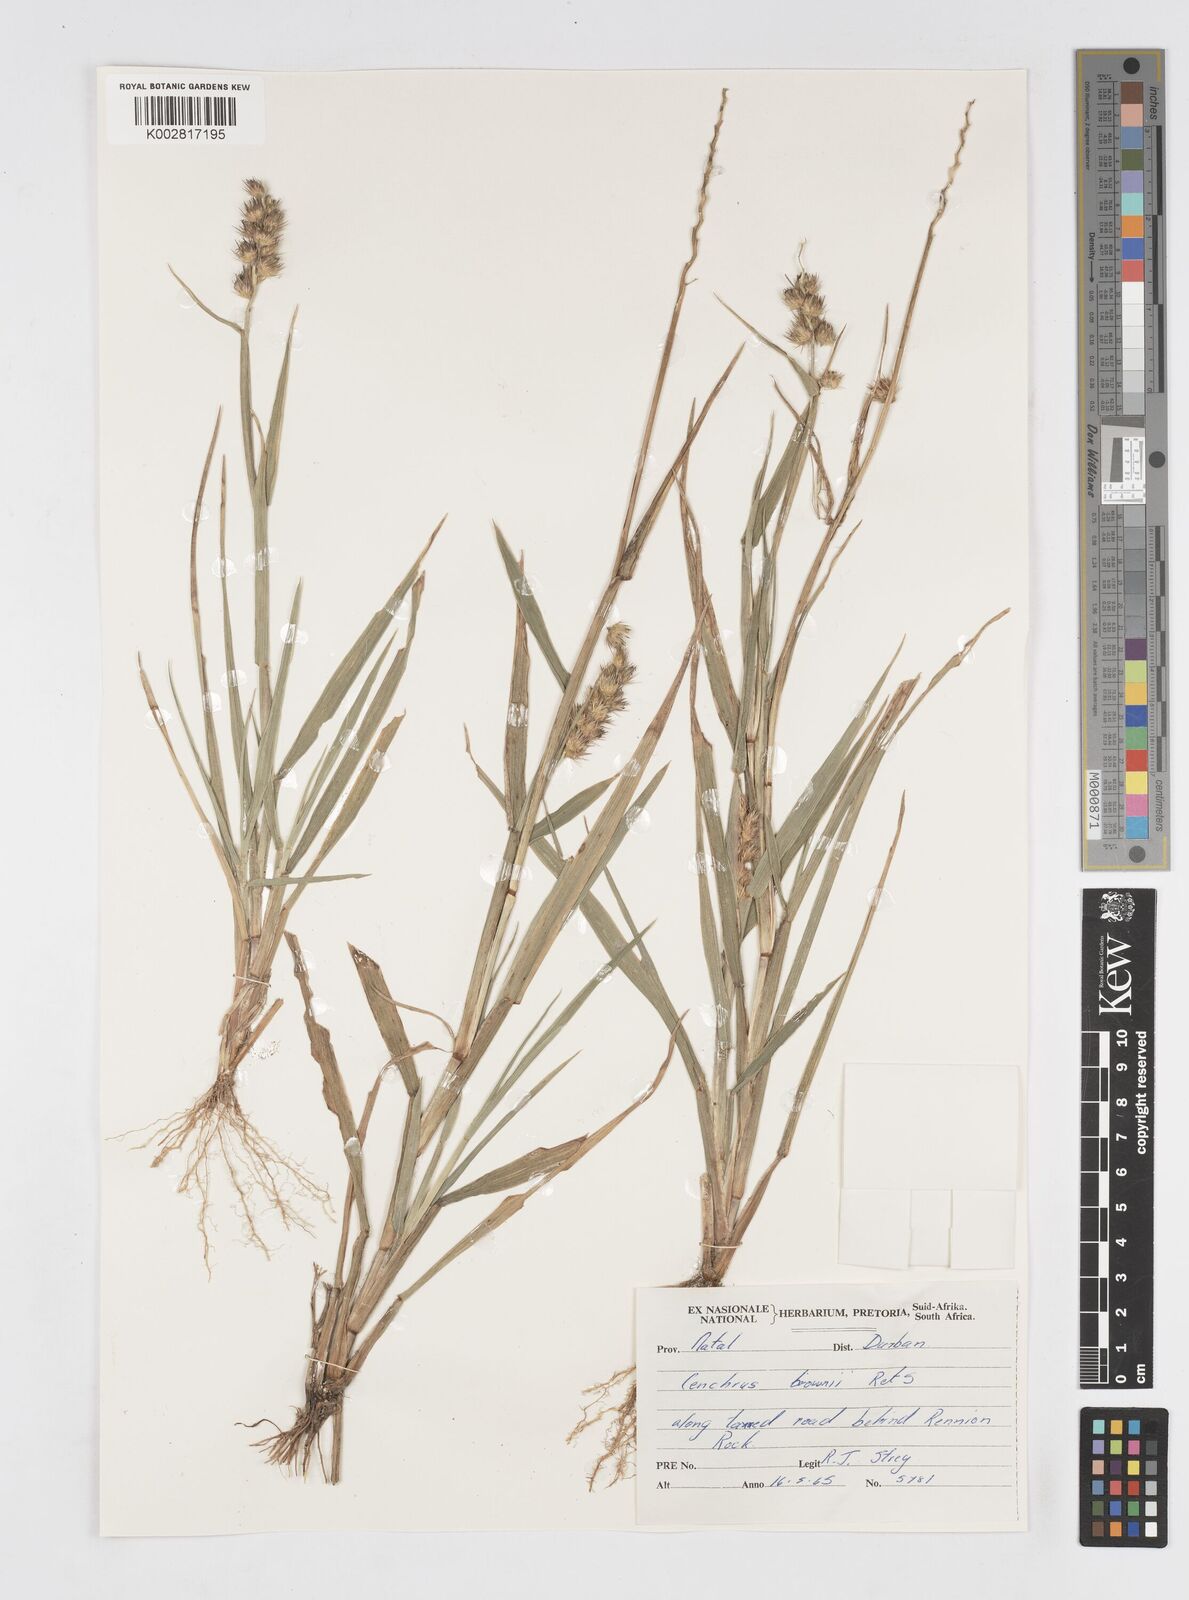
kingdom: Plantae
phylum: Tracheophyta
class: Liliopsida
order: Poales
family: Poaceae
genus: Cenchrus
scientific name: Cenchrus brownii
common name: Slim-bristle sandbur
